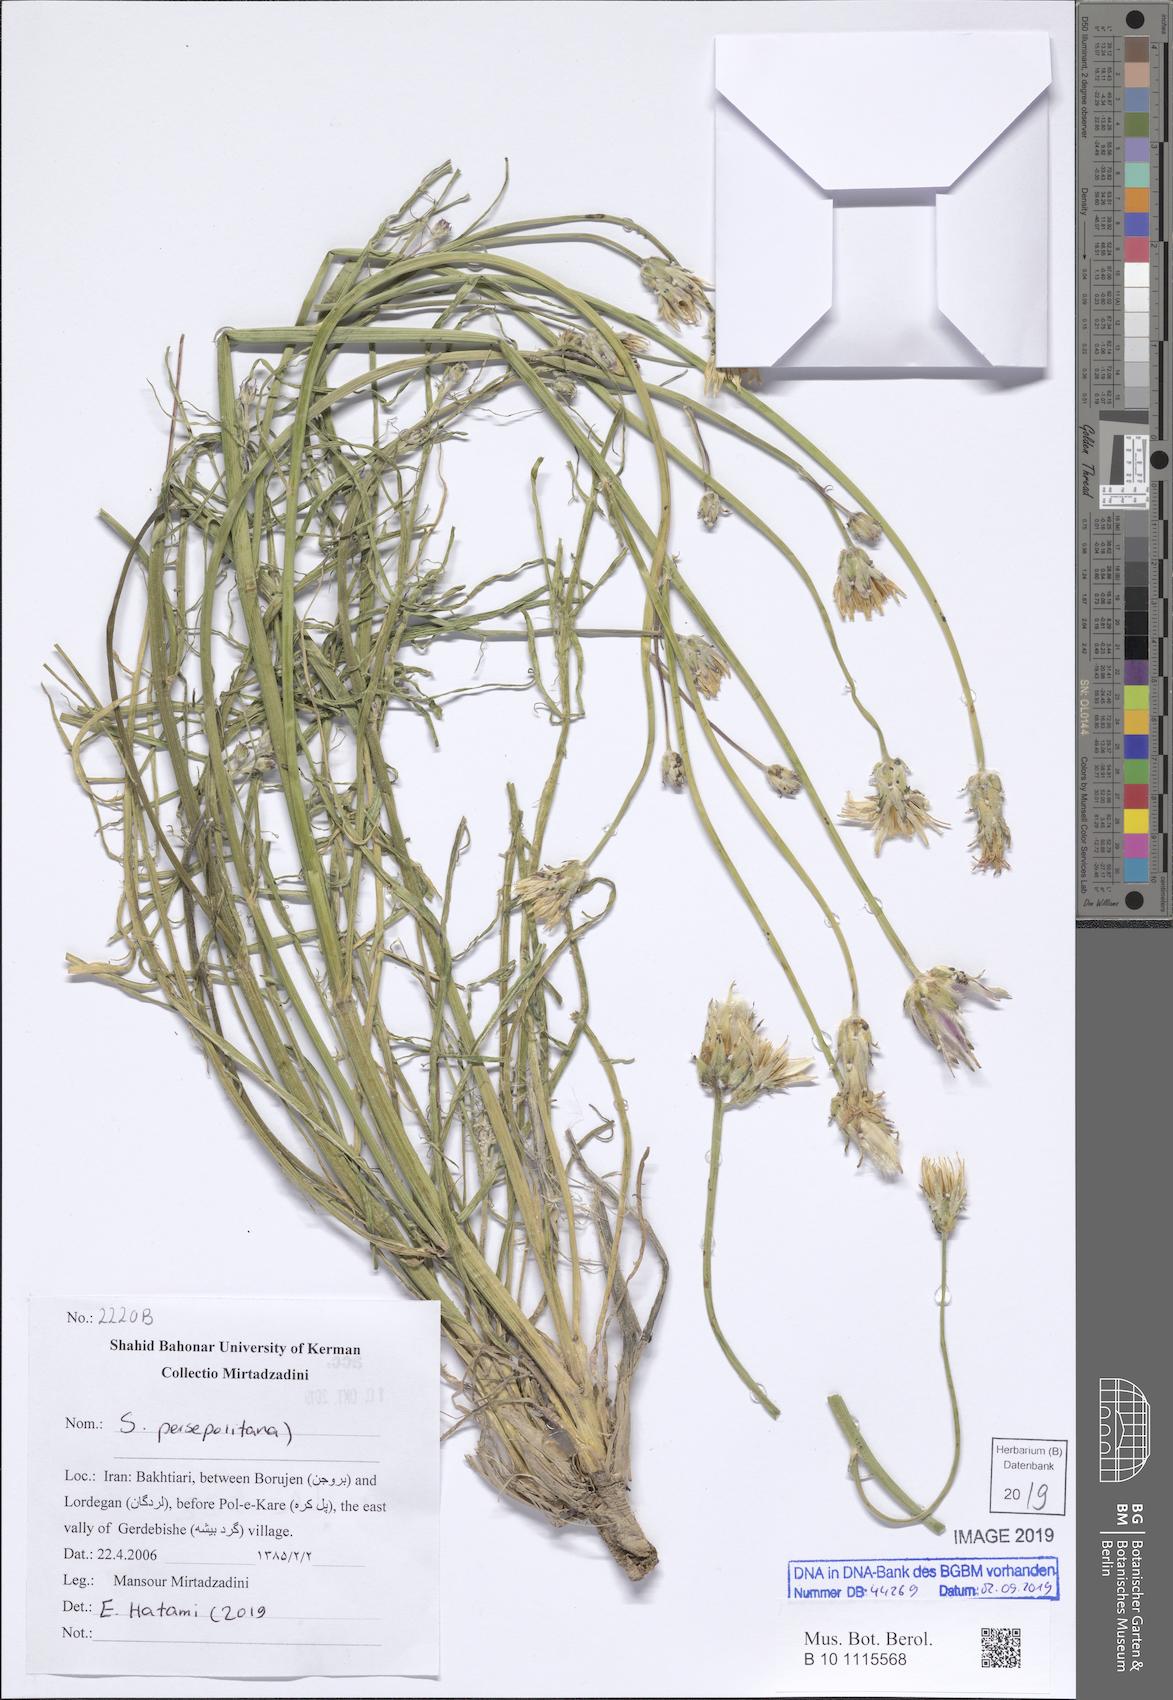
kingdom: Plantae
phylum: Tracheophyta
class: Magnoliopsida
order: Asterales
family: Asteraceae
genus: Scorzonera
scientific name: Scorzonera persepolitana
